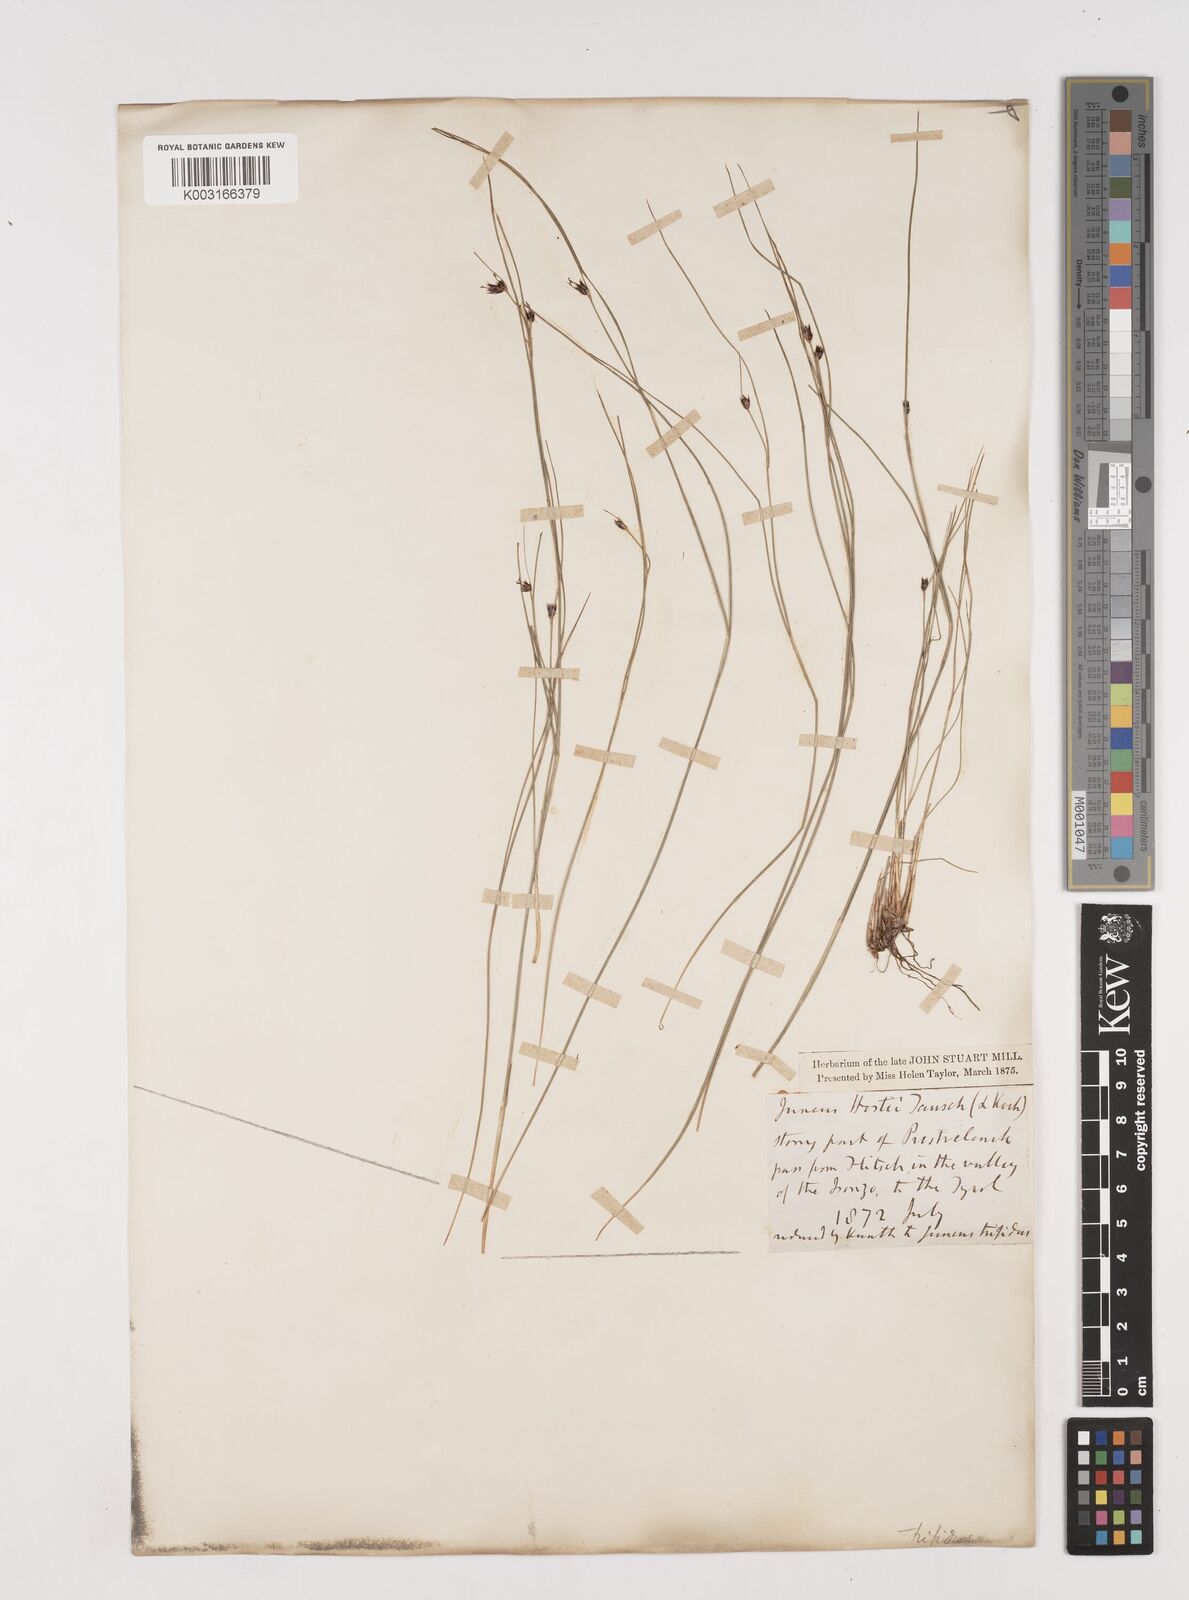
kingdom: Plantae
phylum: Tracheophyta
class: Liliopsida
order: Poales
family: Juncaceae
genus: Oreojuncus
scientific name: Oreojuncus trifidus
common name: Highland rush
